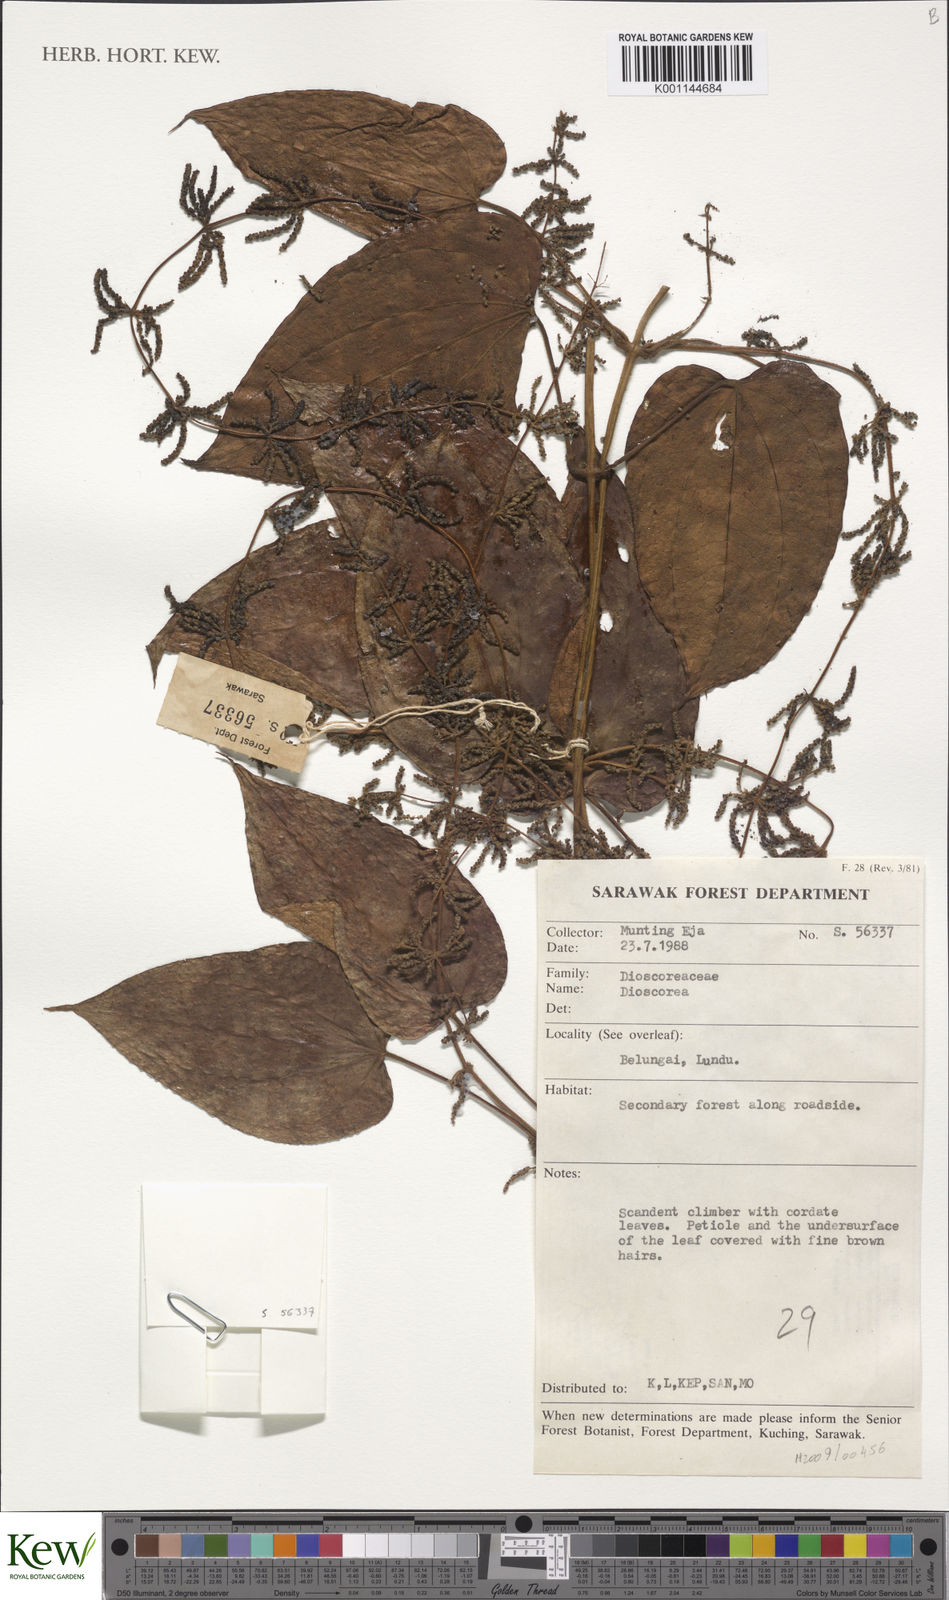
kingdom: Plantae
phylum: Tracheophyta
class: Liliopsida
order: Dioscoreales
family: Dioscoreaceae
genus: Dioscorea
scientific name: Dioscorea
